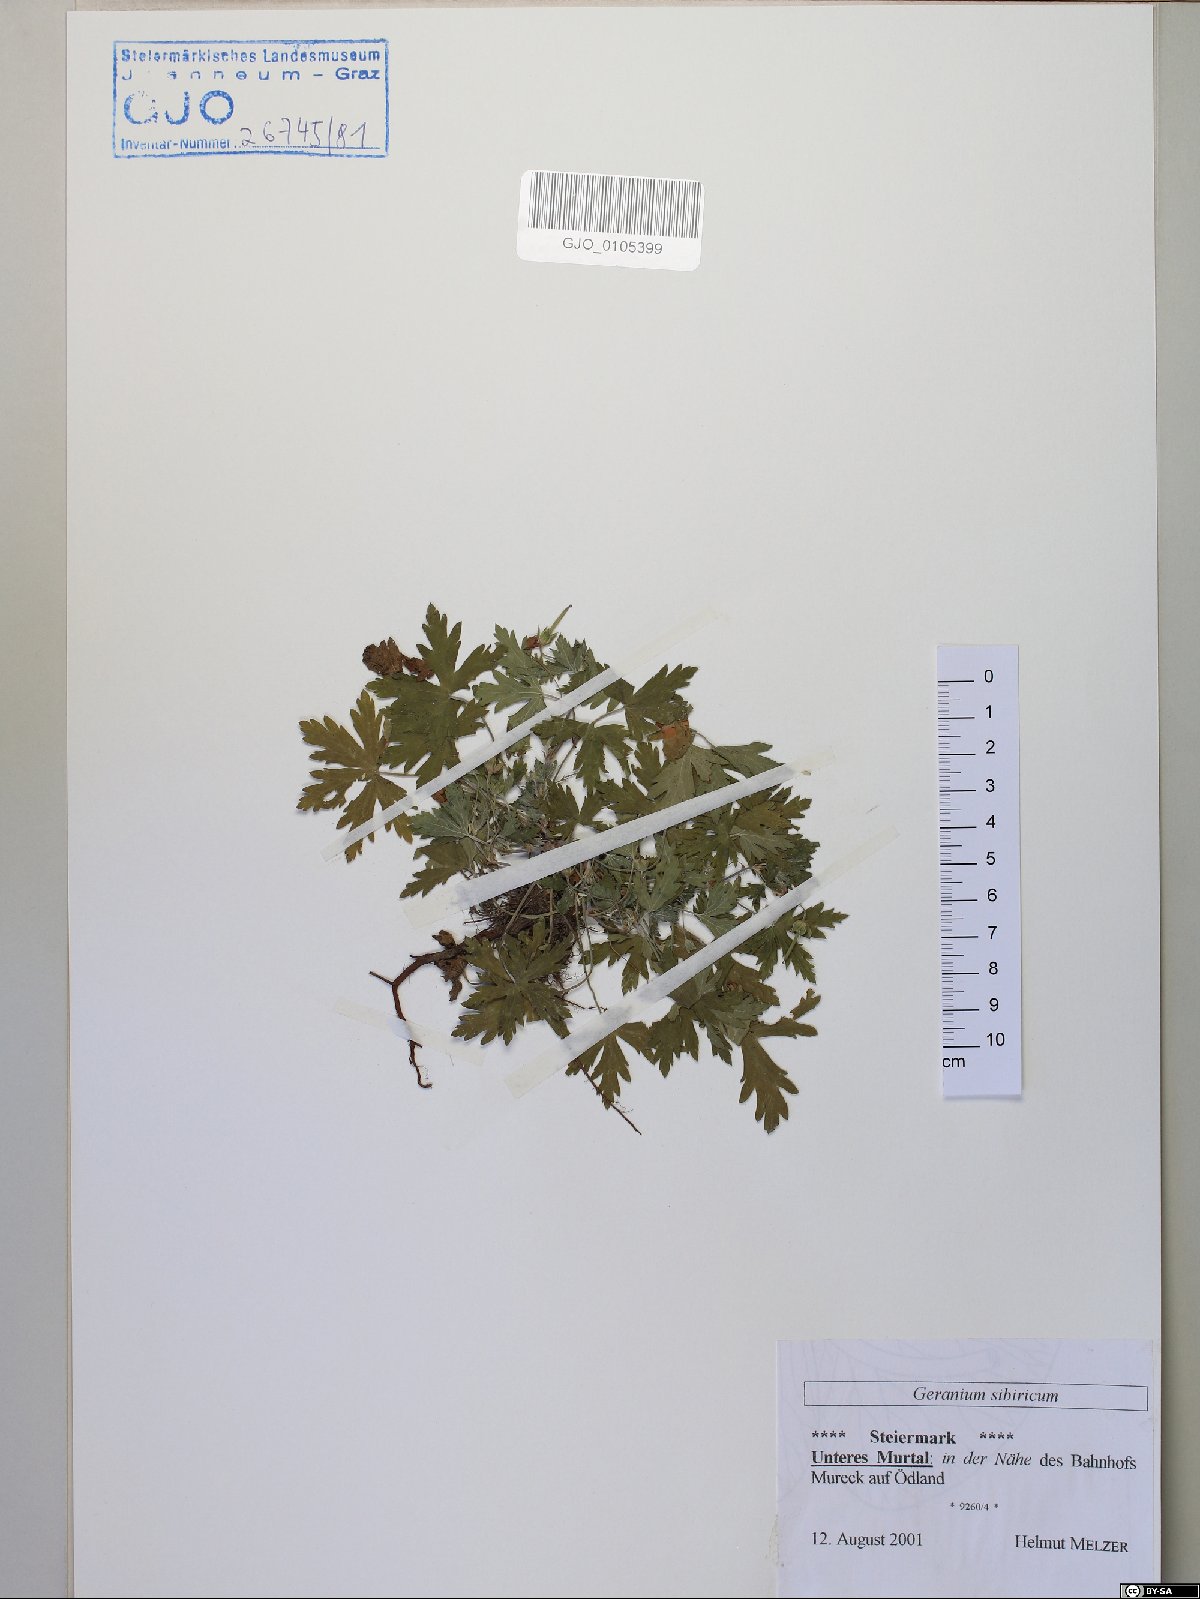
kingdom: Plantae
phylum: Tracheophyta
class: Magnoliopsida
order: Geraniales
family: Geraniaceae
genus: Geranium
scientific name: Geranium sibiricum
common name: Siberian crane's-bill
